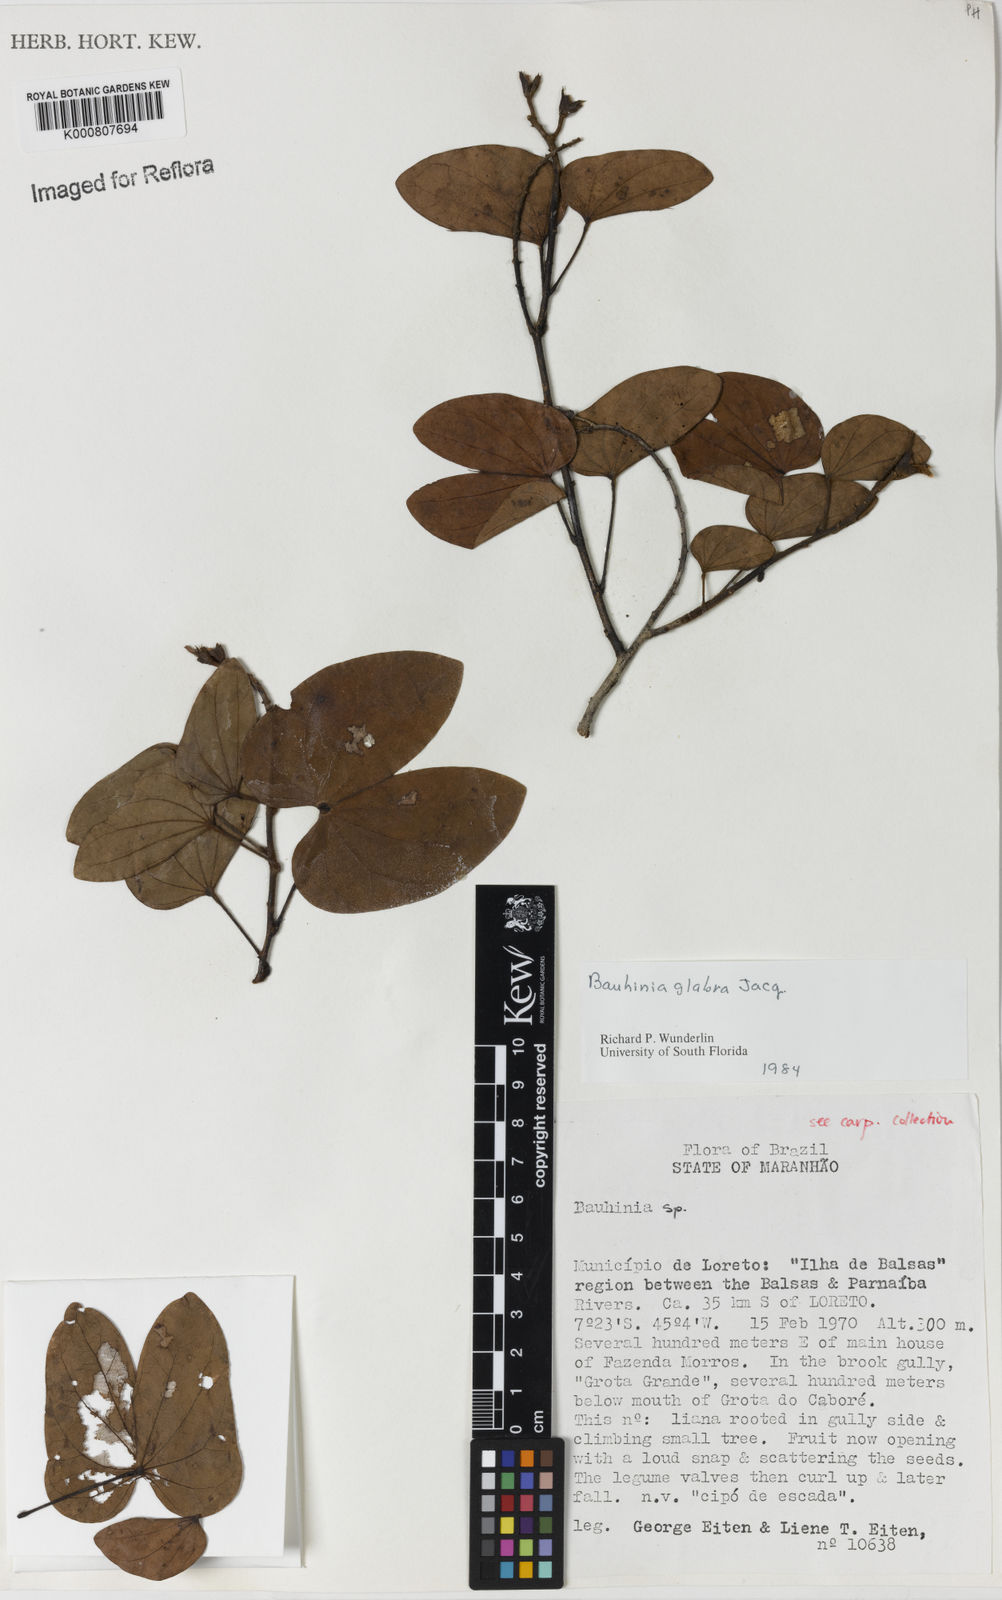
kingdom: Plantae
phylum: Tracheophyta
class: Magnoliopsida
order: Fabales
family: Fabaceae
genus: Schnella
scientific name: Schnella glabra
